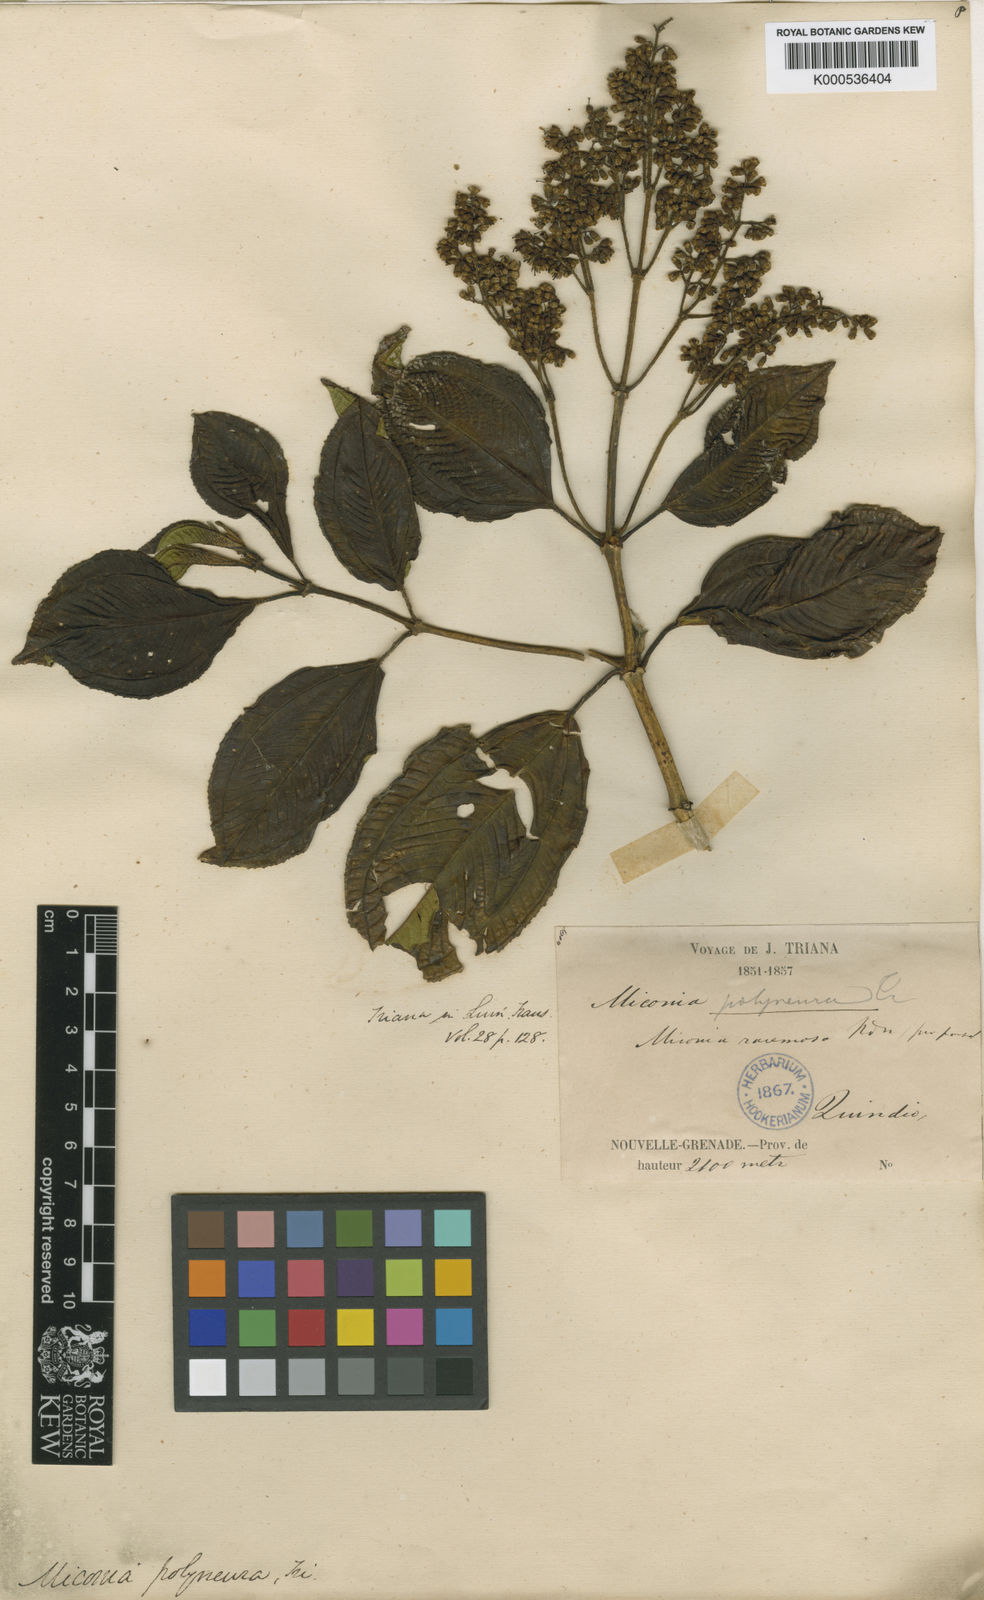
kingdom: Plantae
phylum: Tracheophyta
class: Magnoliopsida
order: Myrtales
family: Melastomataceae
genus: Miconia
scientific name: Miconia polyneura
